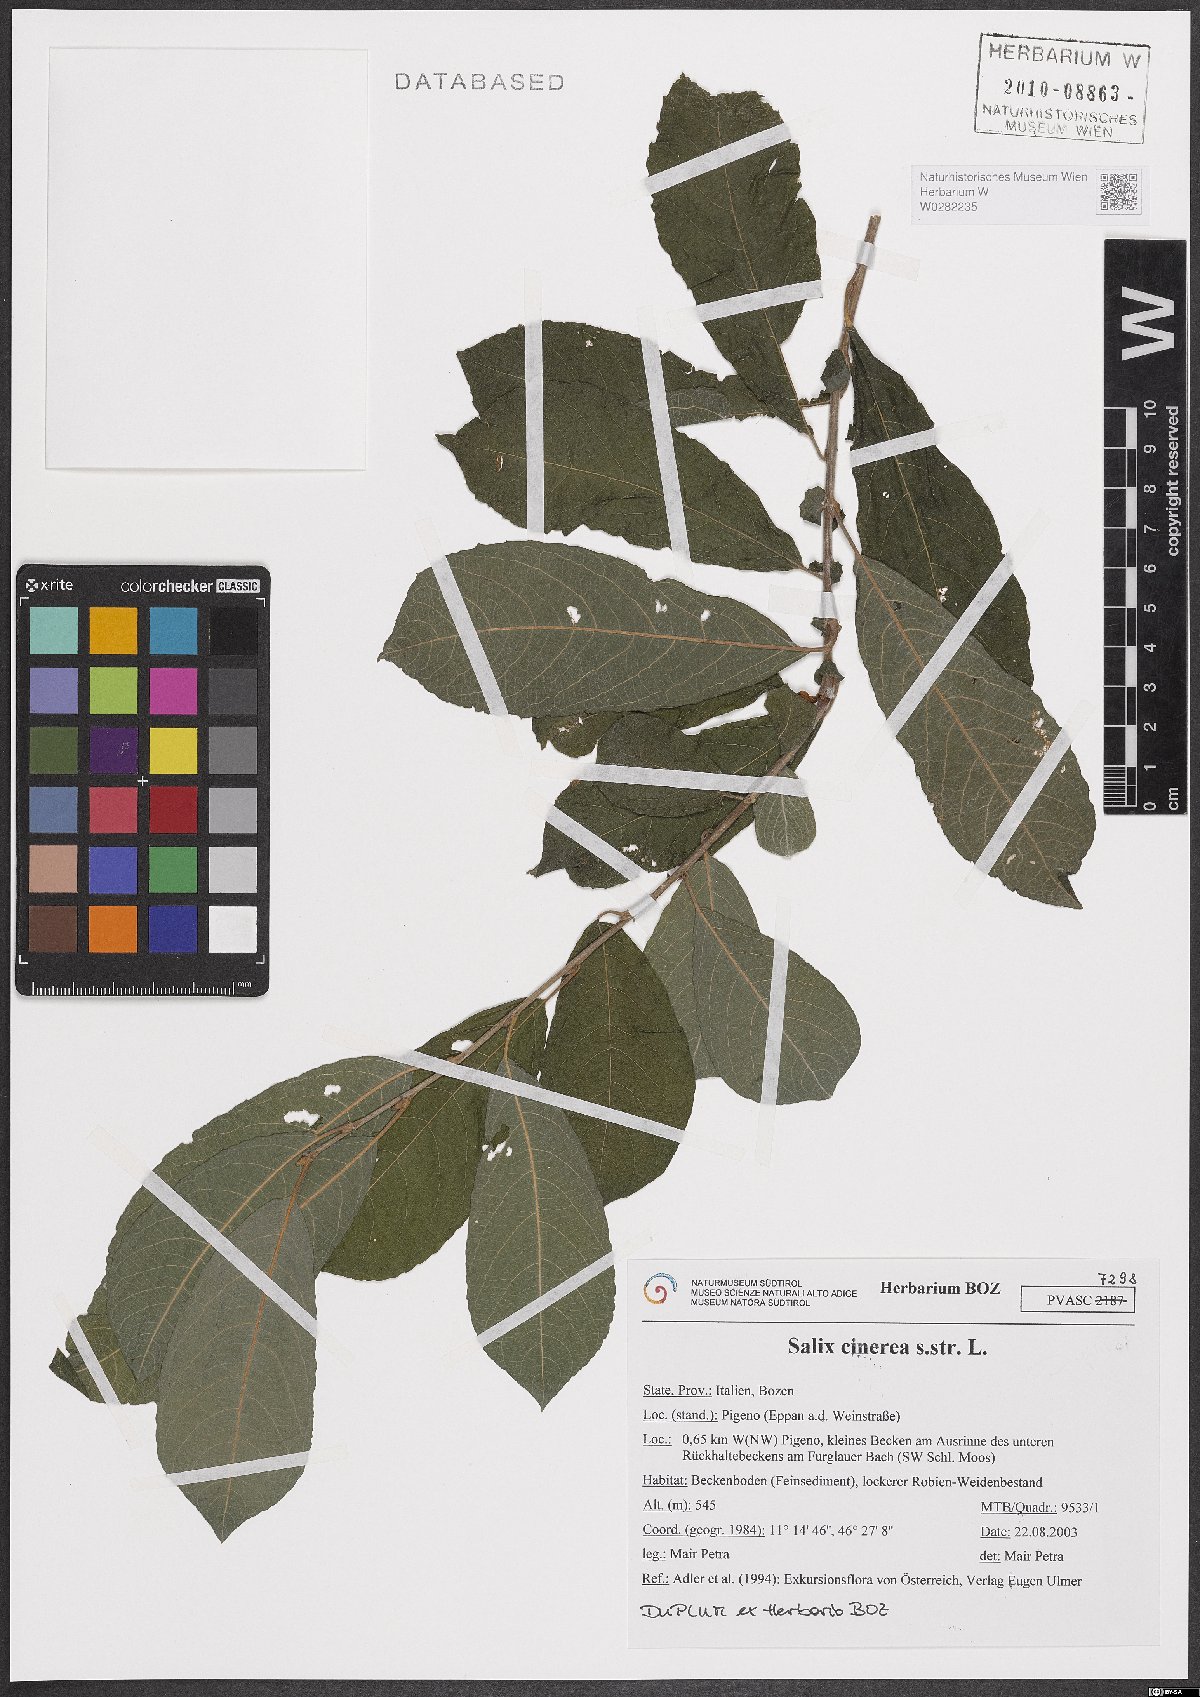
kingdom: Plantae
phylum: Tracheophyta
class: Magnoliopsida
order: Malpighiales
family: Salicaceae
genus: Salix
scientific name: Salix cinerea
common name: Common sallow
